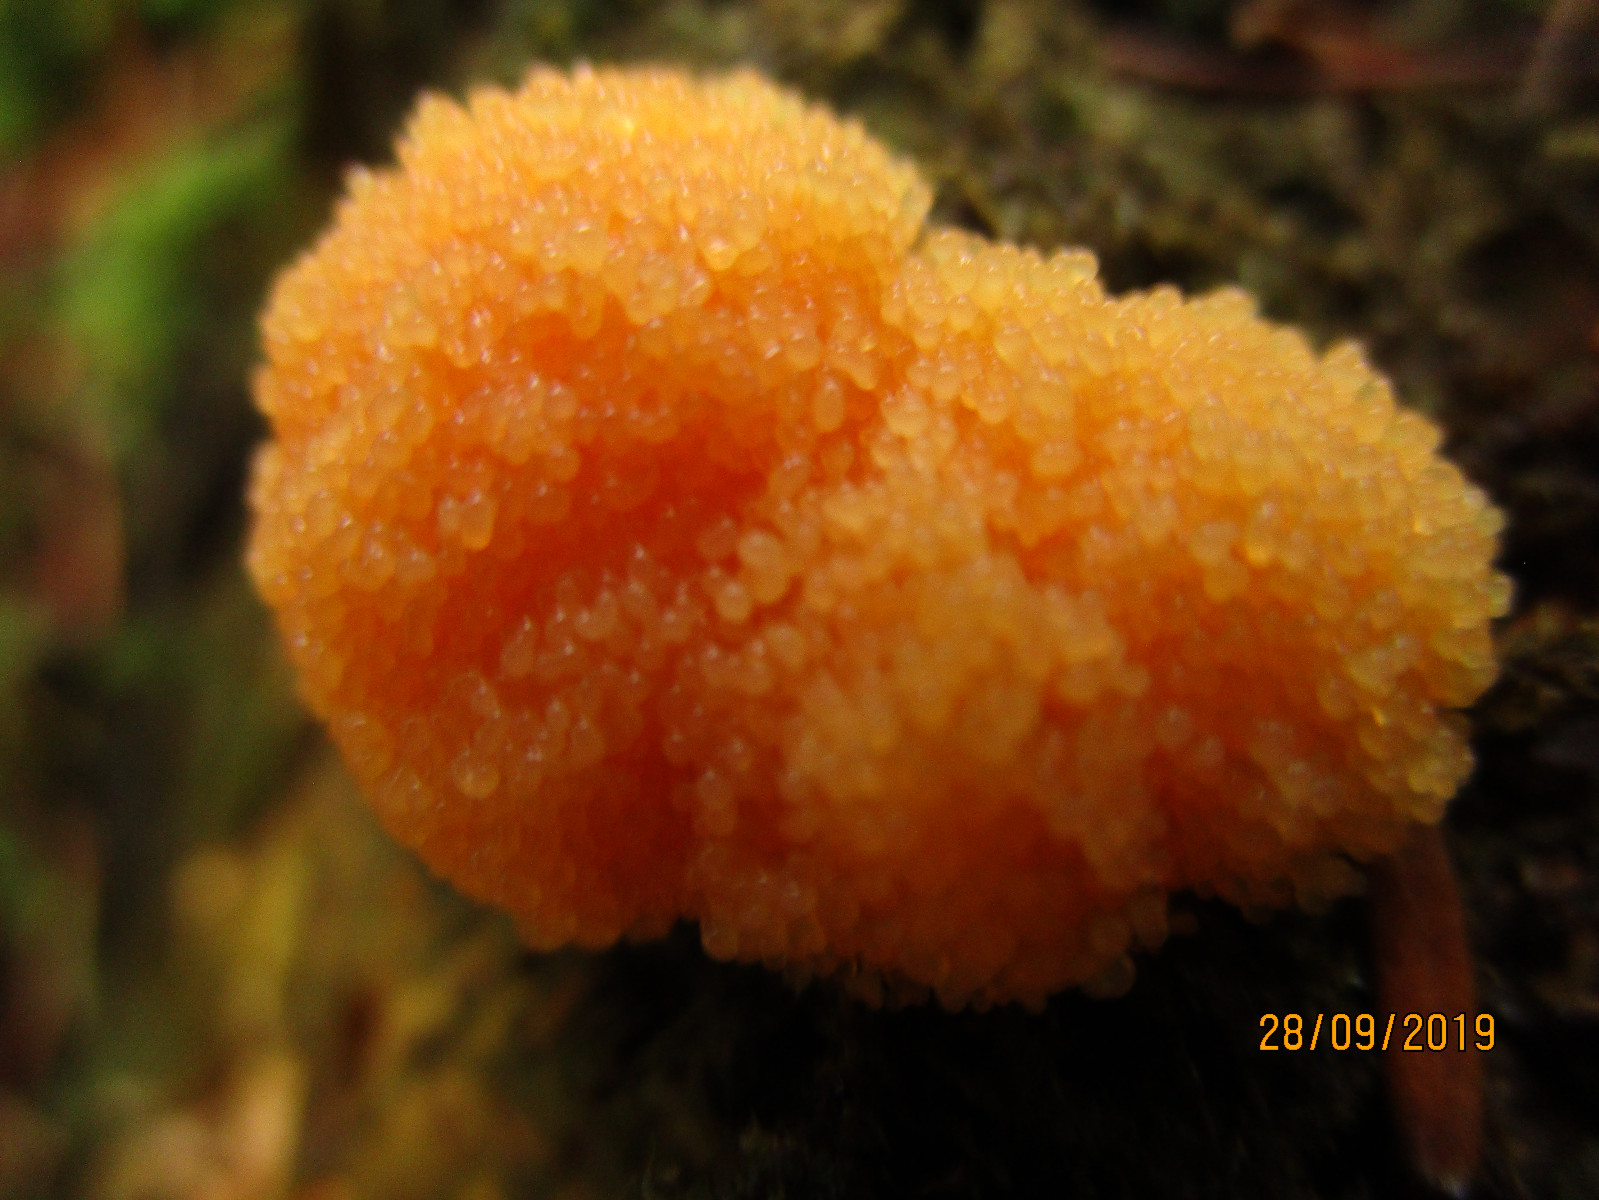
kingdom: Protozoa
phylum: Mycetozoa
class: Myxomycetes
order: Cribrariales
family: Tubiferaceae
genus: Tubifera
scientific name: Tubifera ferruginosa
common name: kanel-støvrør
